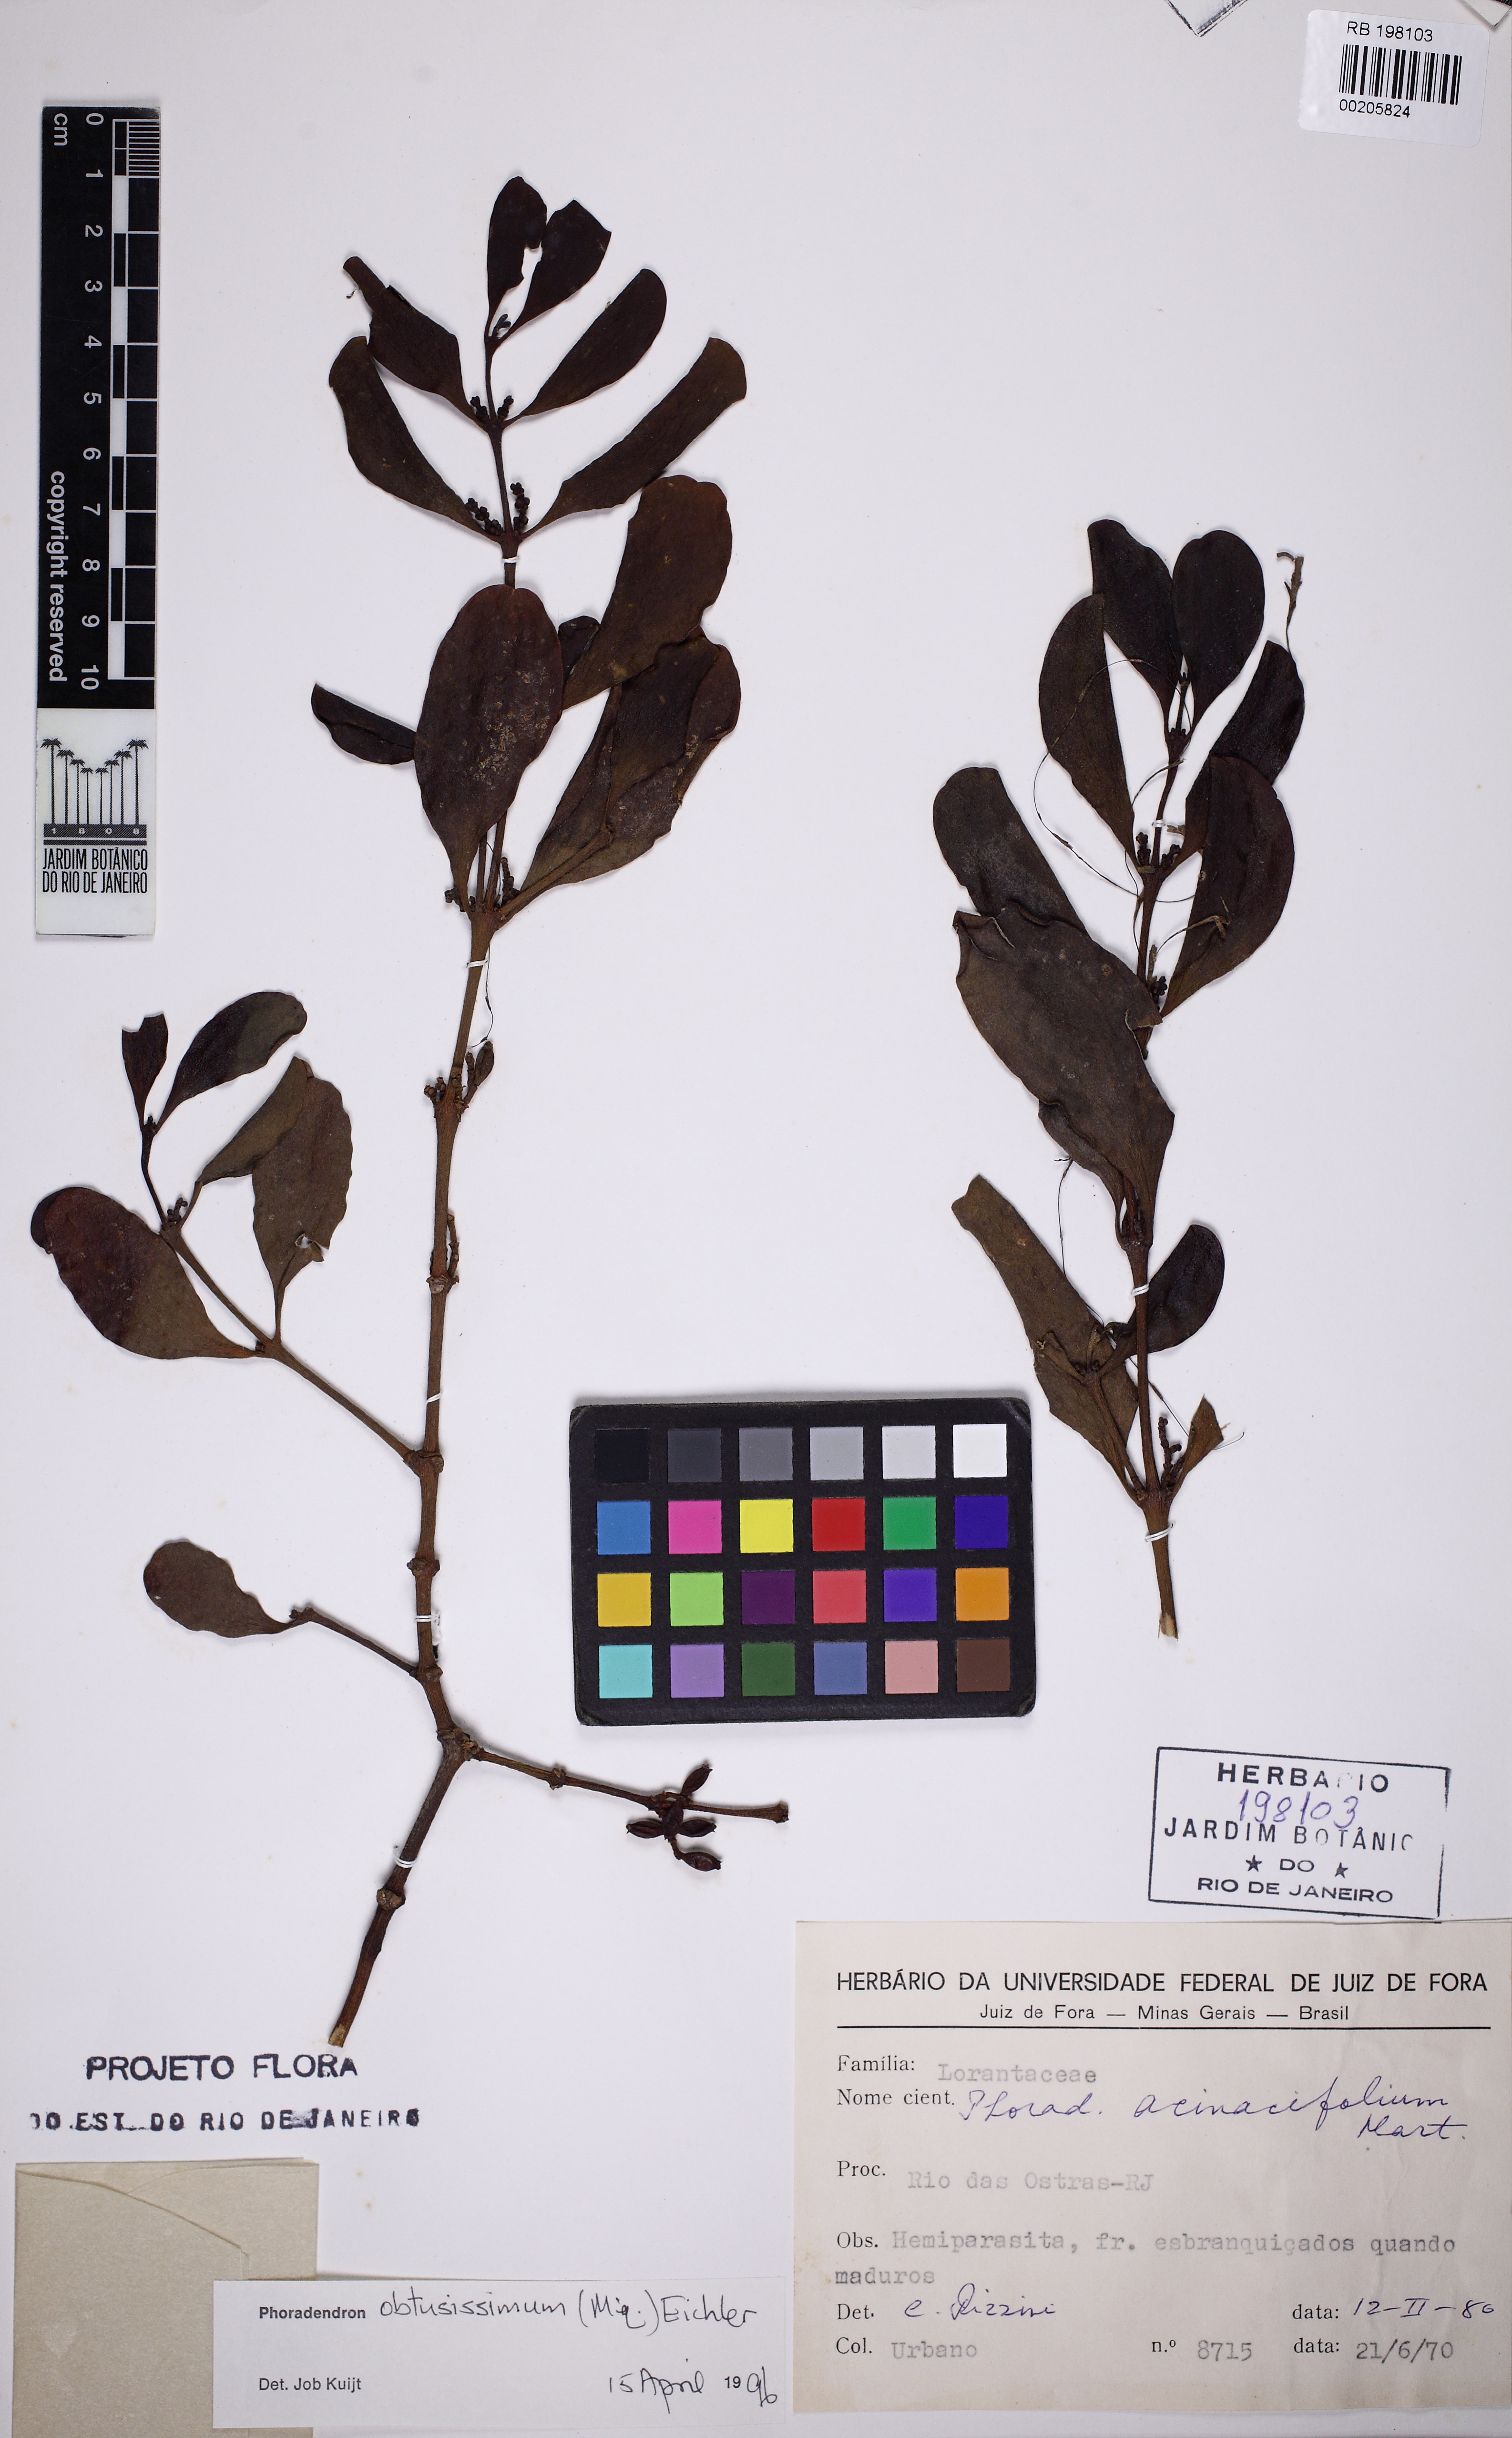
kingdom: Plantae
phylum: Tracheophyta
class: Magnoliopsida
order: Santalales
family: Viscaceae
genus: Phoradendron
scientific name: Phoradendron obtusissimum
